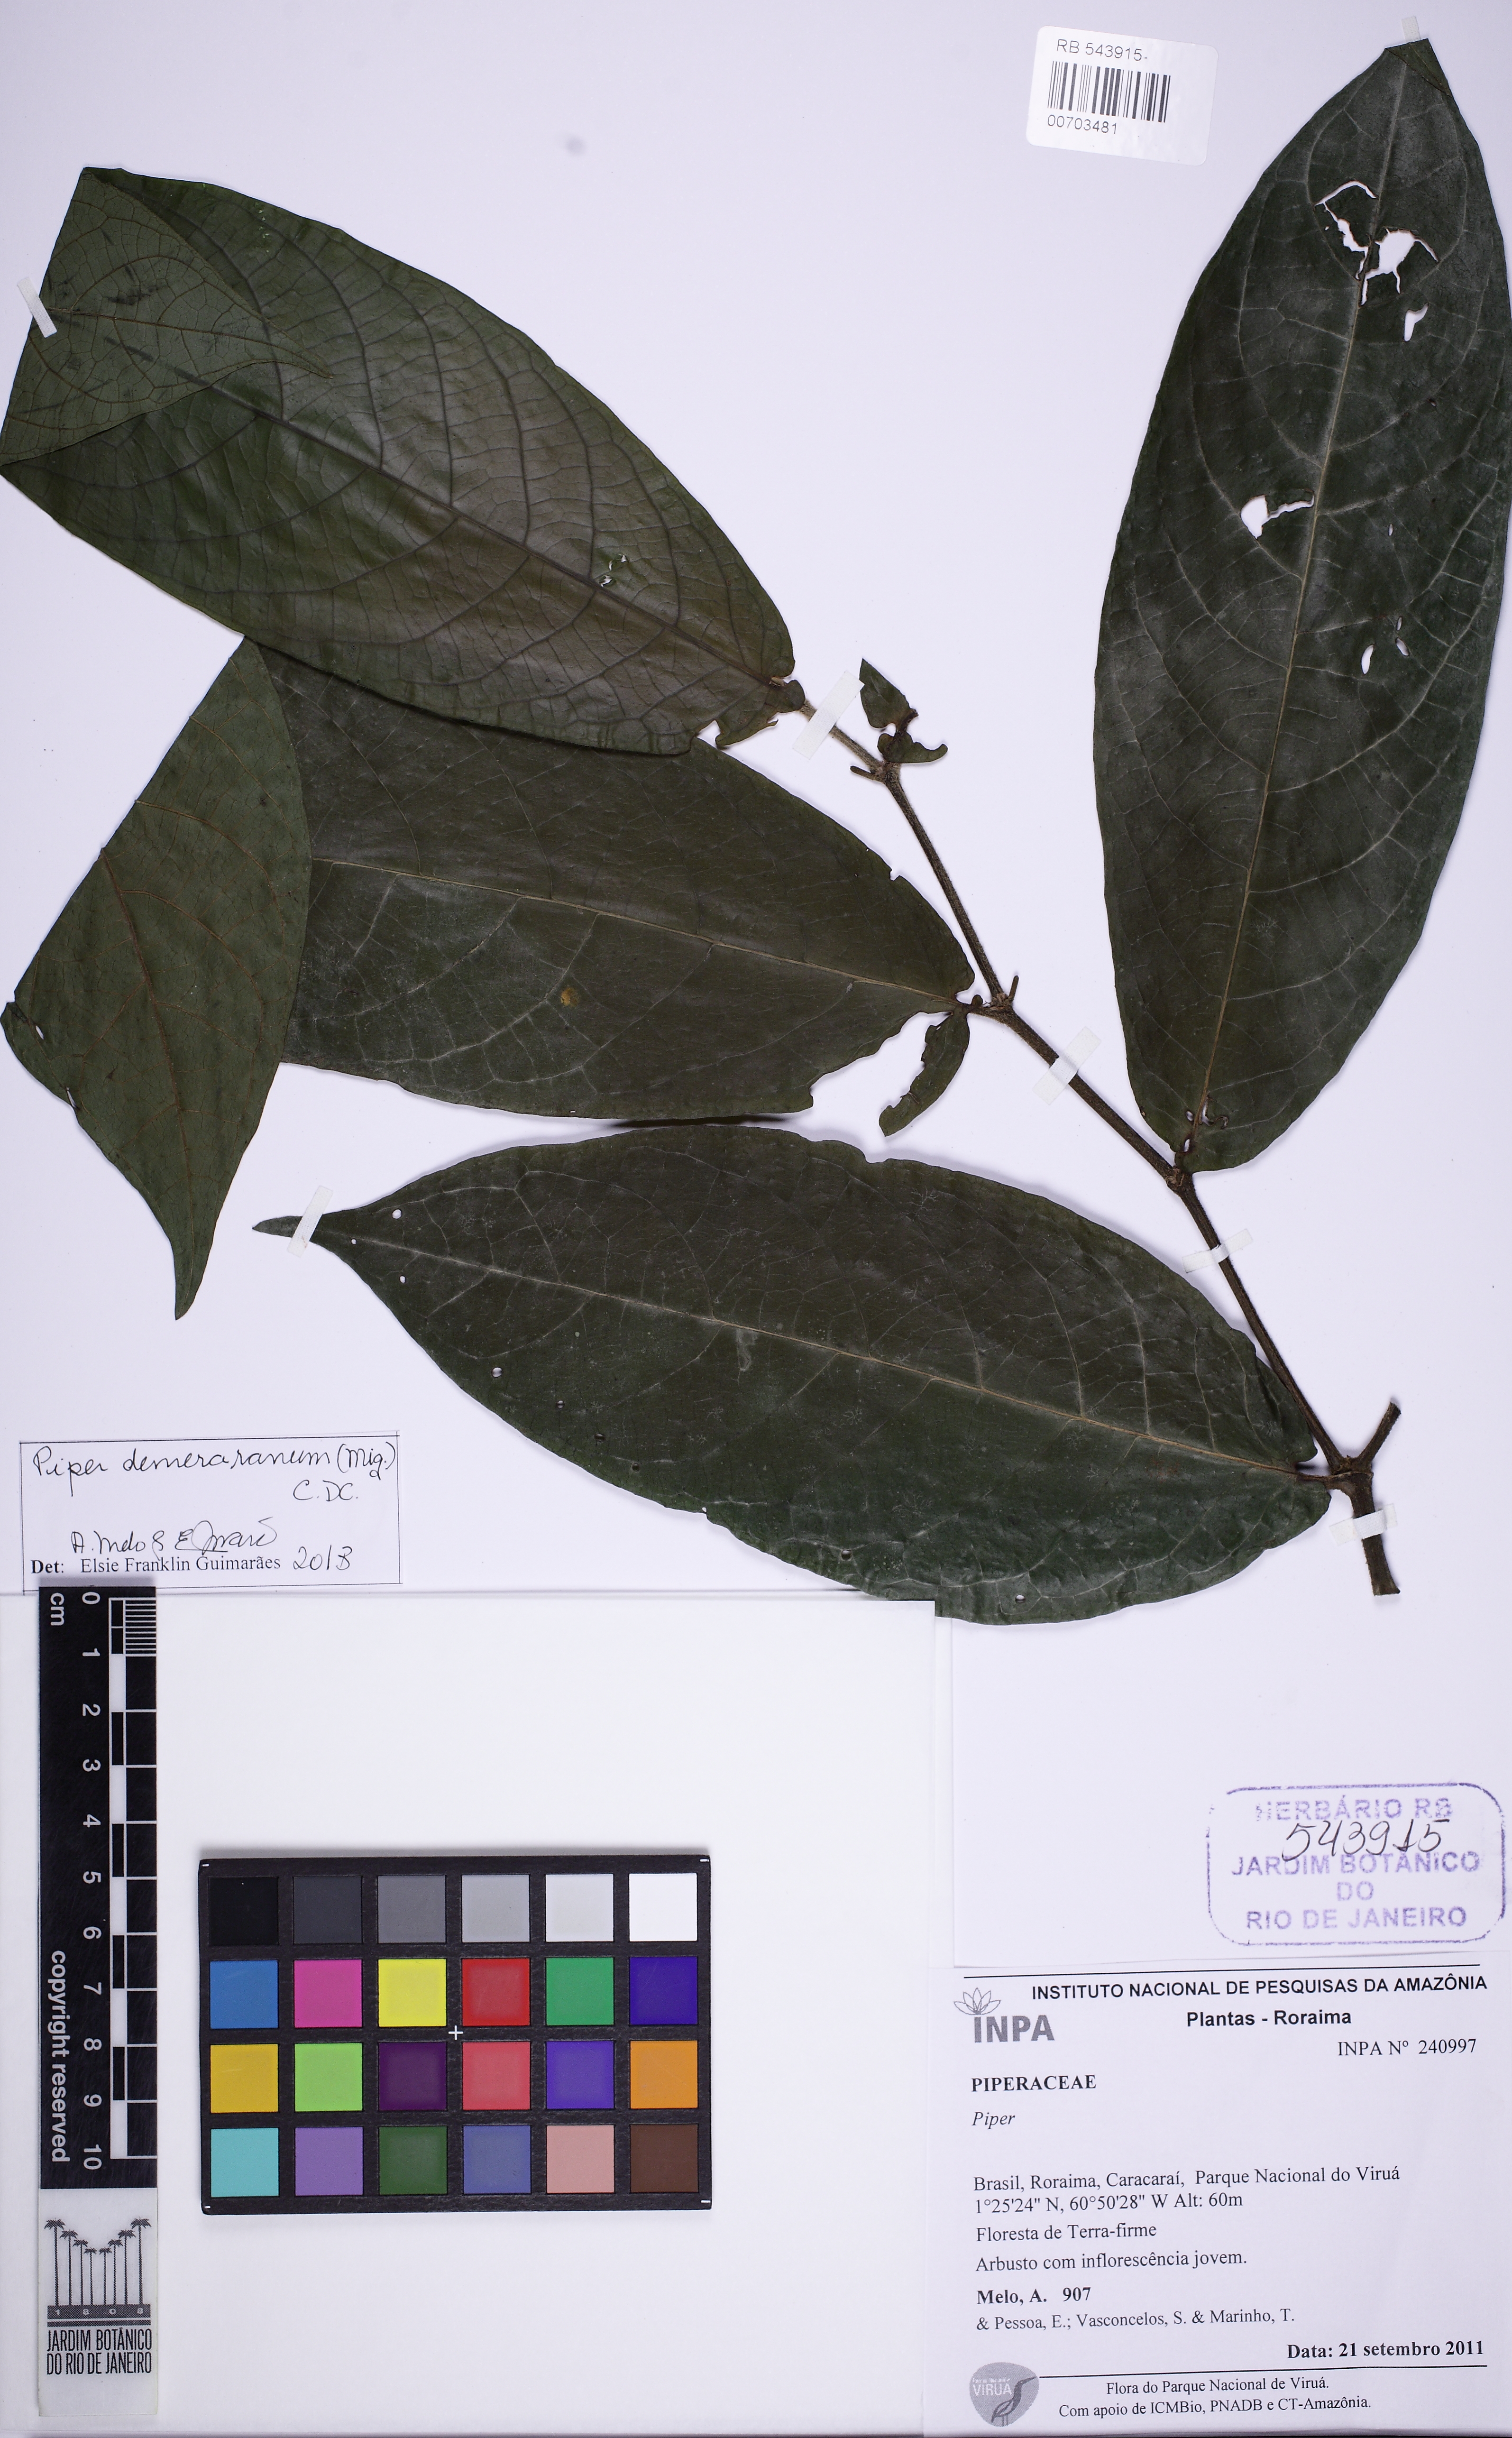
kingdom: Plantae
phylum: Tracheophyta
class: Magnoliopsida
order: Piperales
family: Piperaceae
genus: Piper
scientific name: Piper demeraranum
